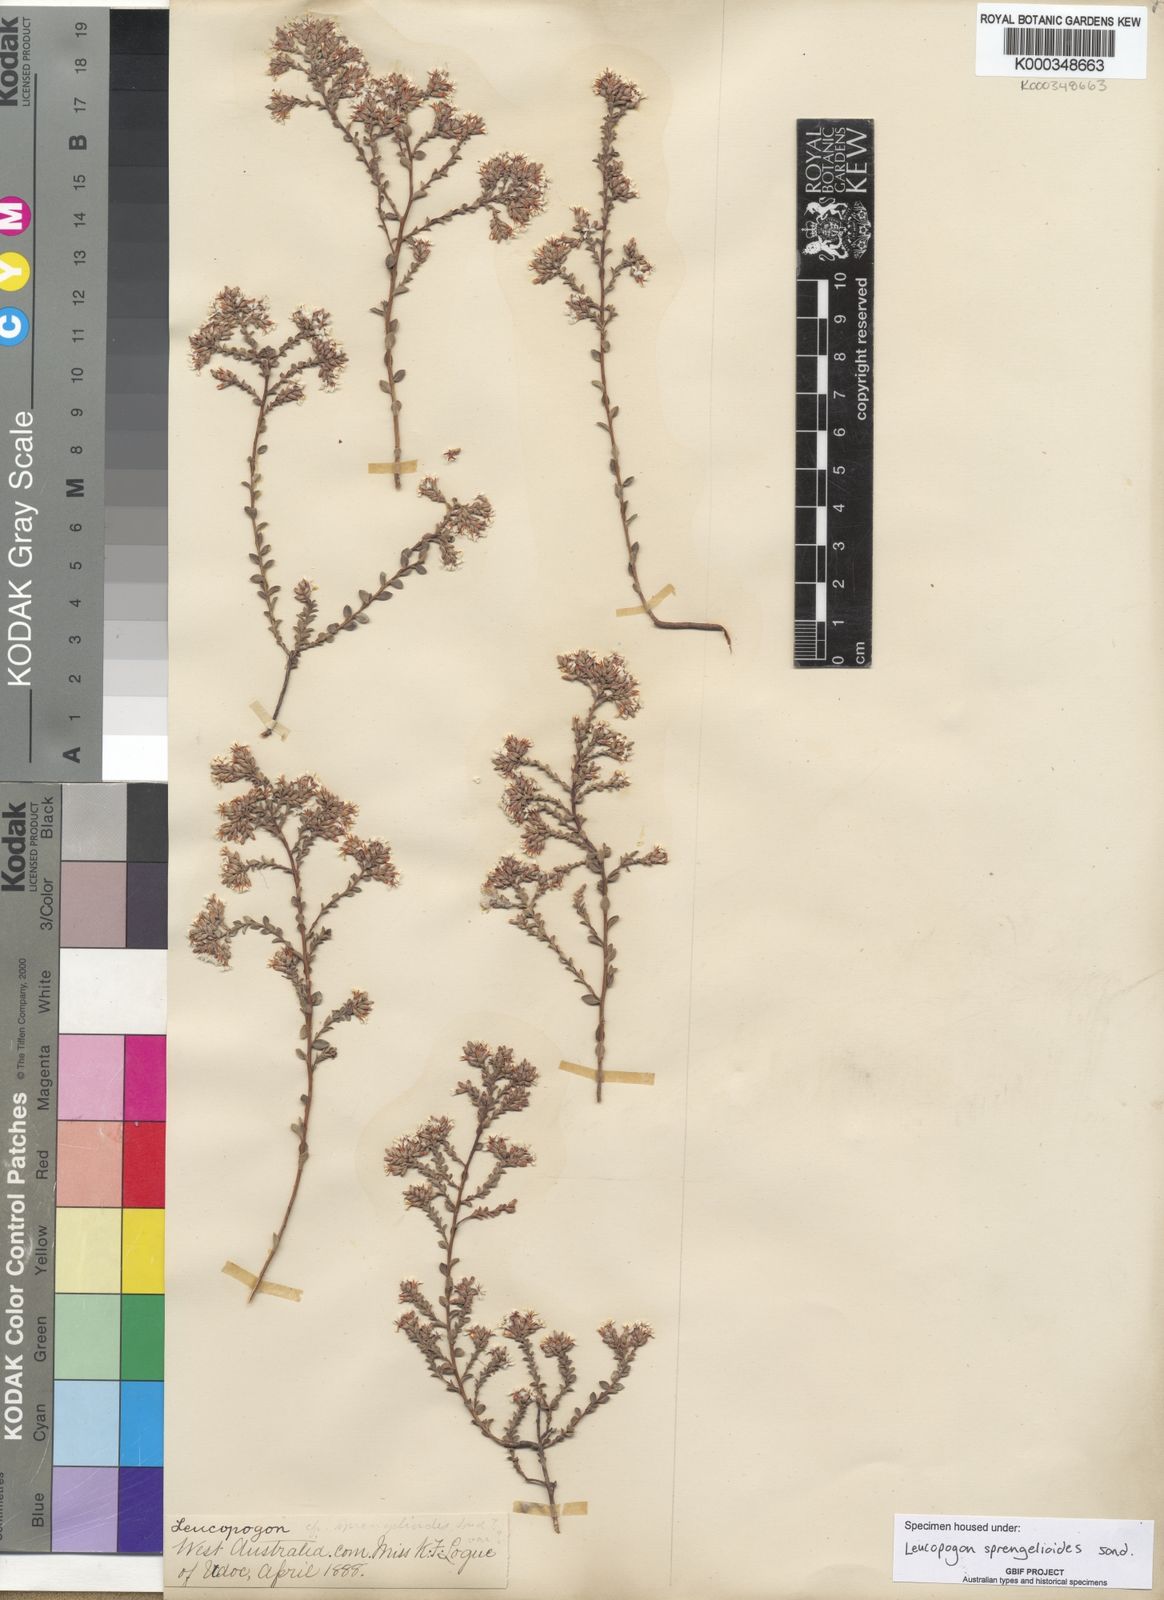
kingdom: Plantae
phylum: Tracheophyta
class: Magnoliopsida
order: Ericales
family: Ericaceae
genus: Leucopogon
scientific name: Leucopogon sprengelioides
